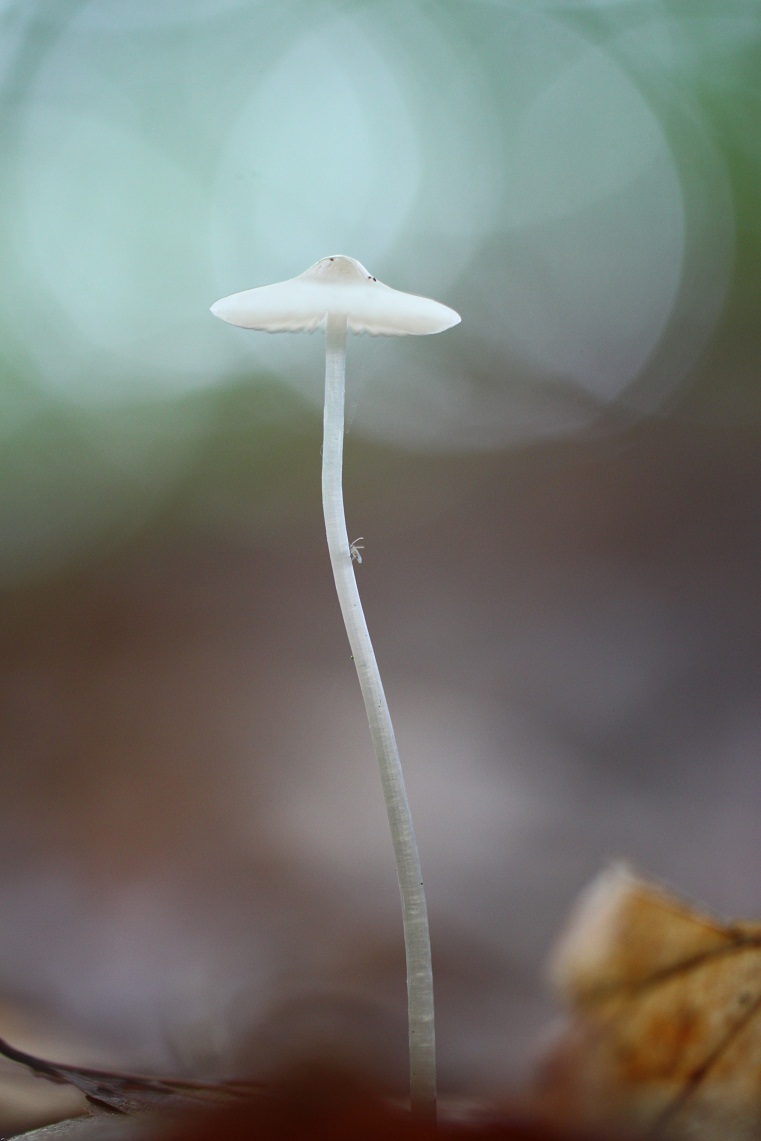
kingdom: Fungi
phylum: Basidiomycota
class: Agaricomycetes
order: Agaricales
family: Mycenaceae
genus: Mycena
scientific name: Mycena vitilis
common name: blankstokket huesvamp
